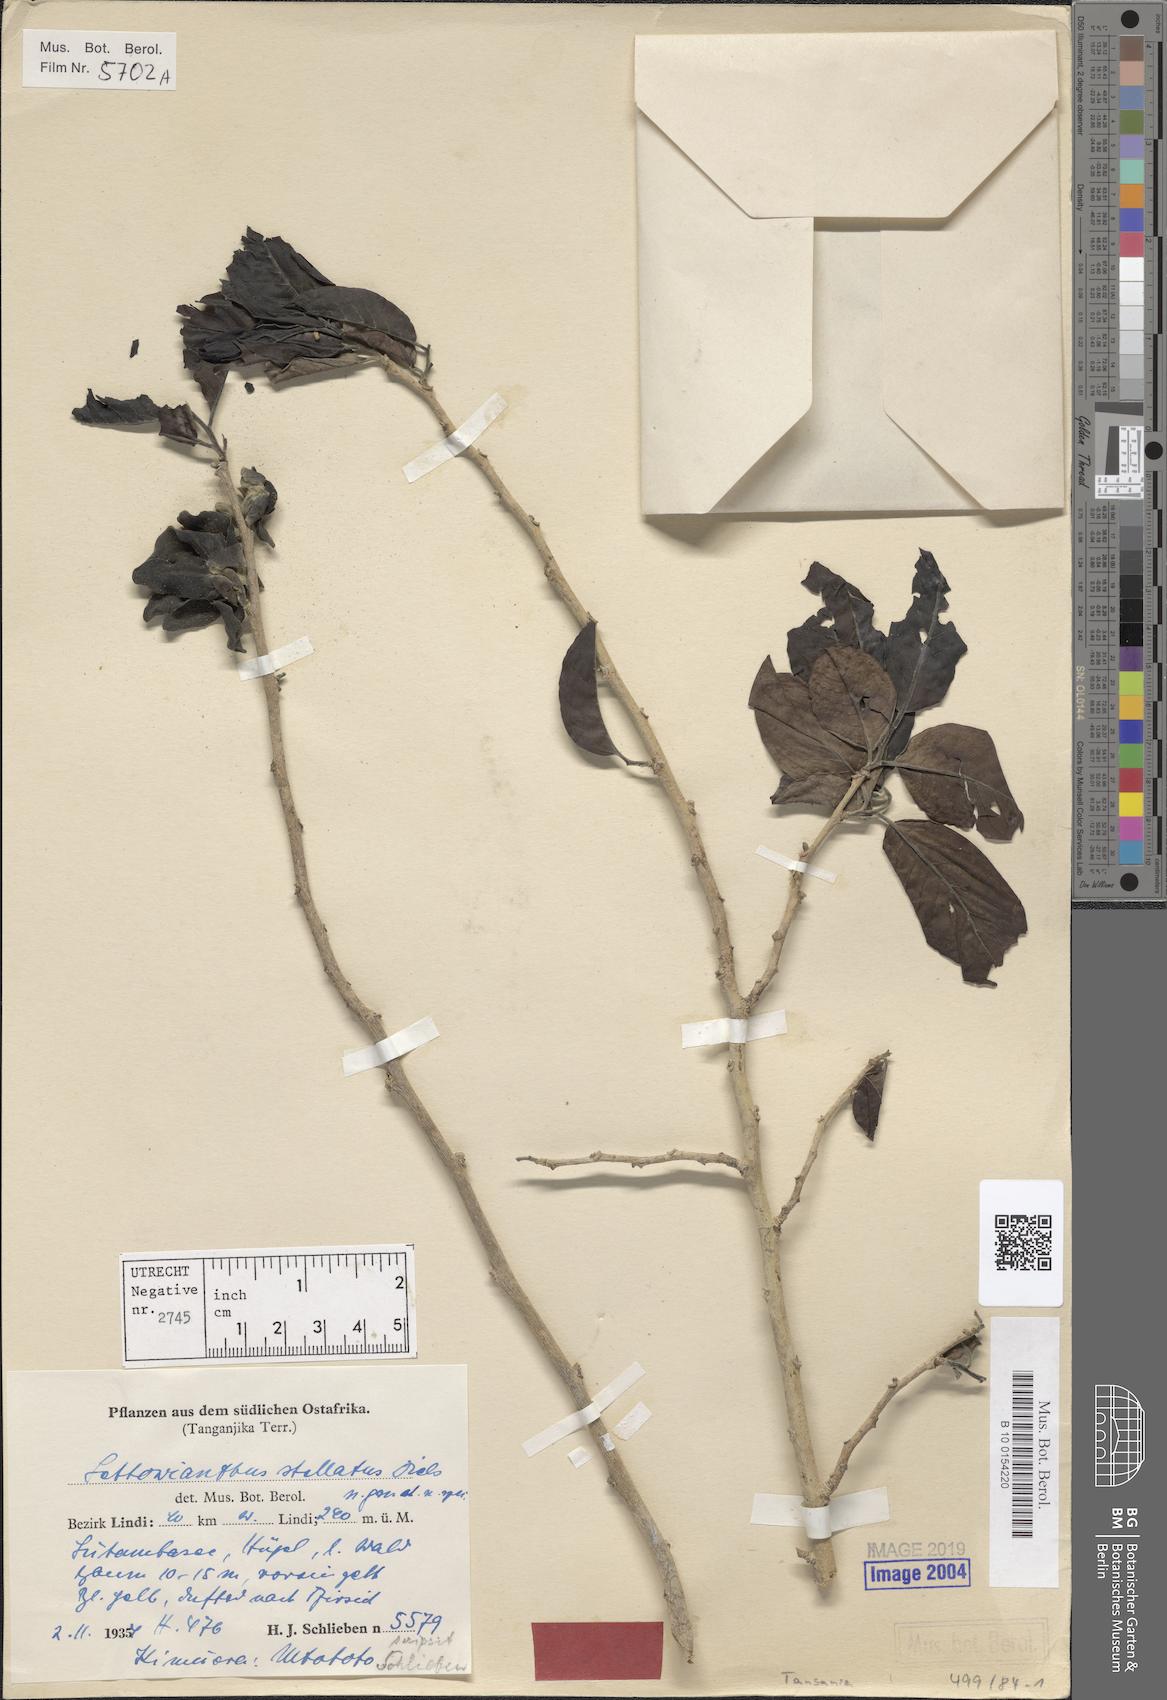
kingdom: Plantae
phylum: Tracheophyta
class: Magnoliopsida
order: Magnoliales
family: Annonaceae
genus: Lettowianthus
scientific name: Lettowianthus stellatus
